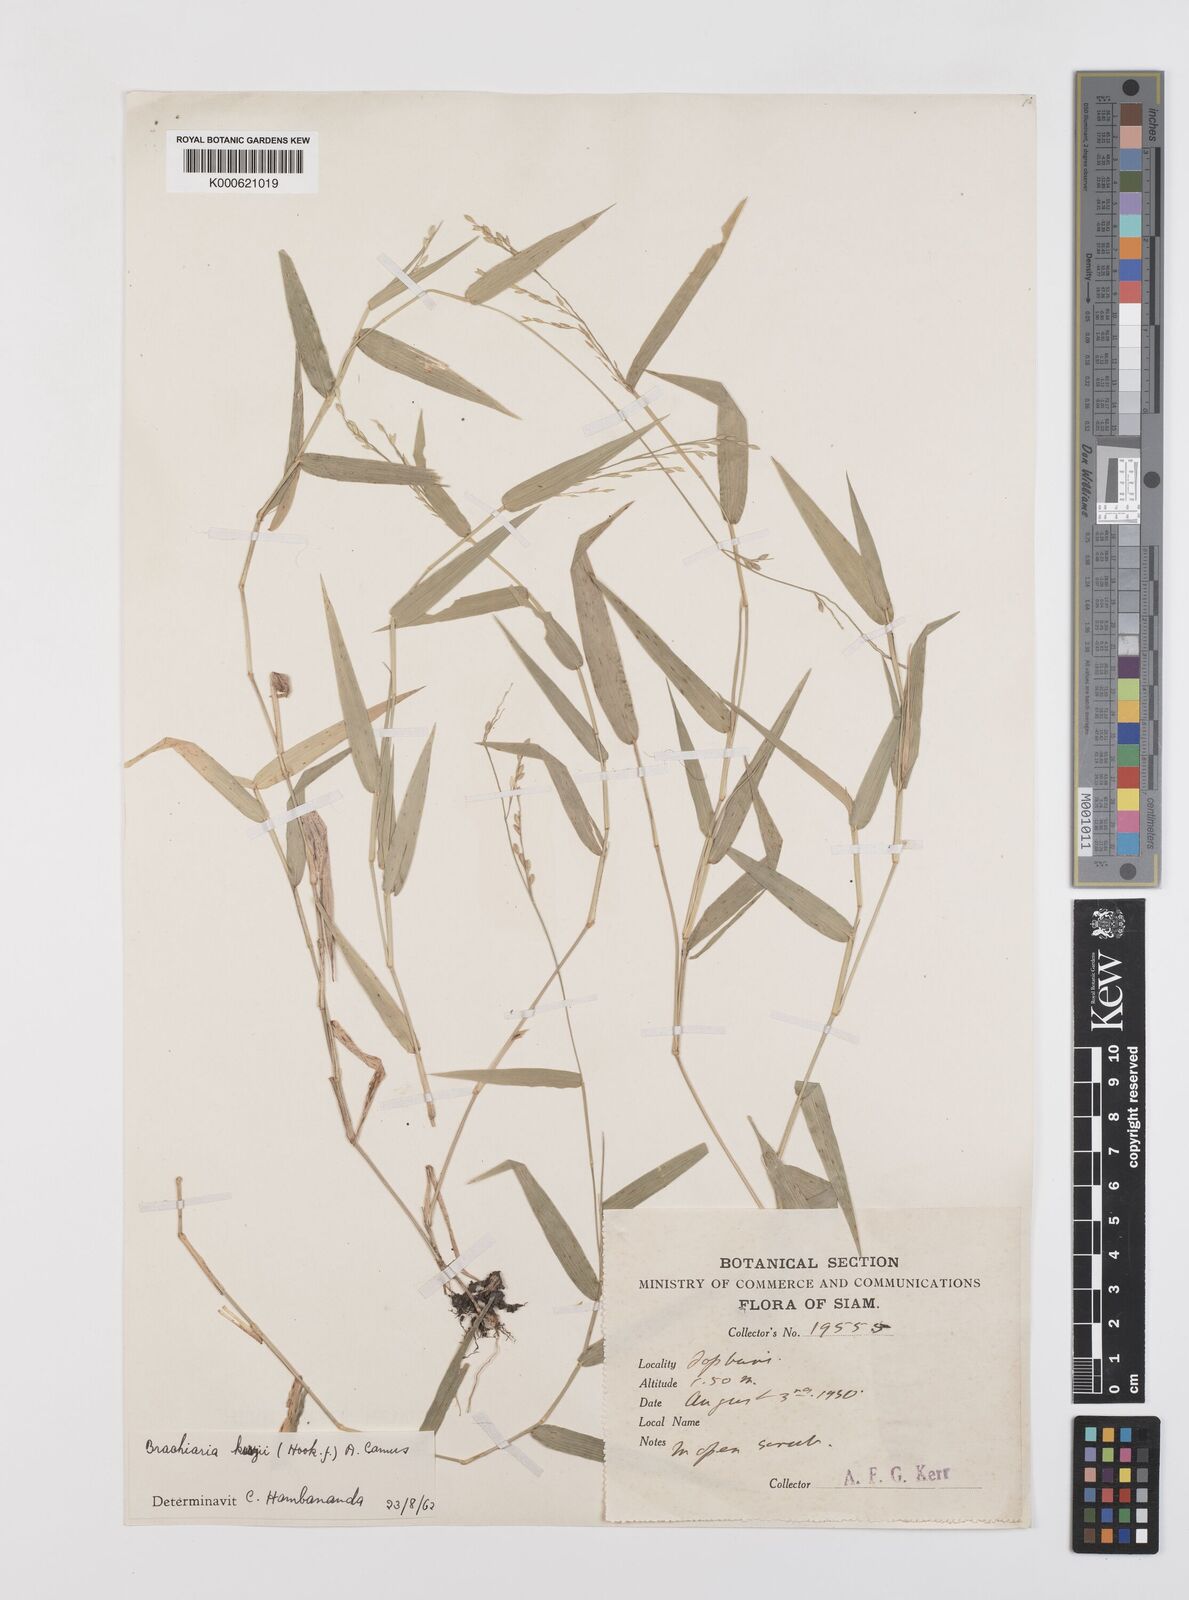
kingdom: Plantae
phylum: Tracheophyta
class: Liliopsida
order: Poales
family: Poaceae
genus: Urochloa
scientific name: Urochloa kurzii
